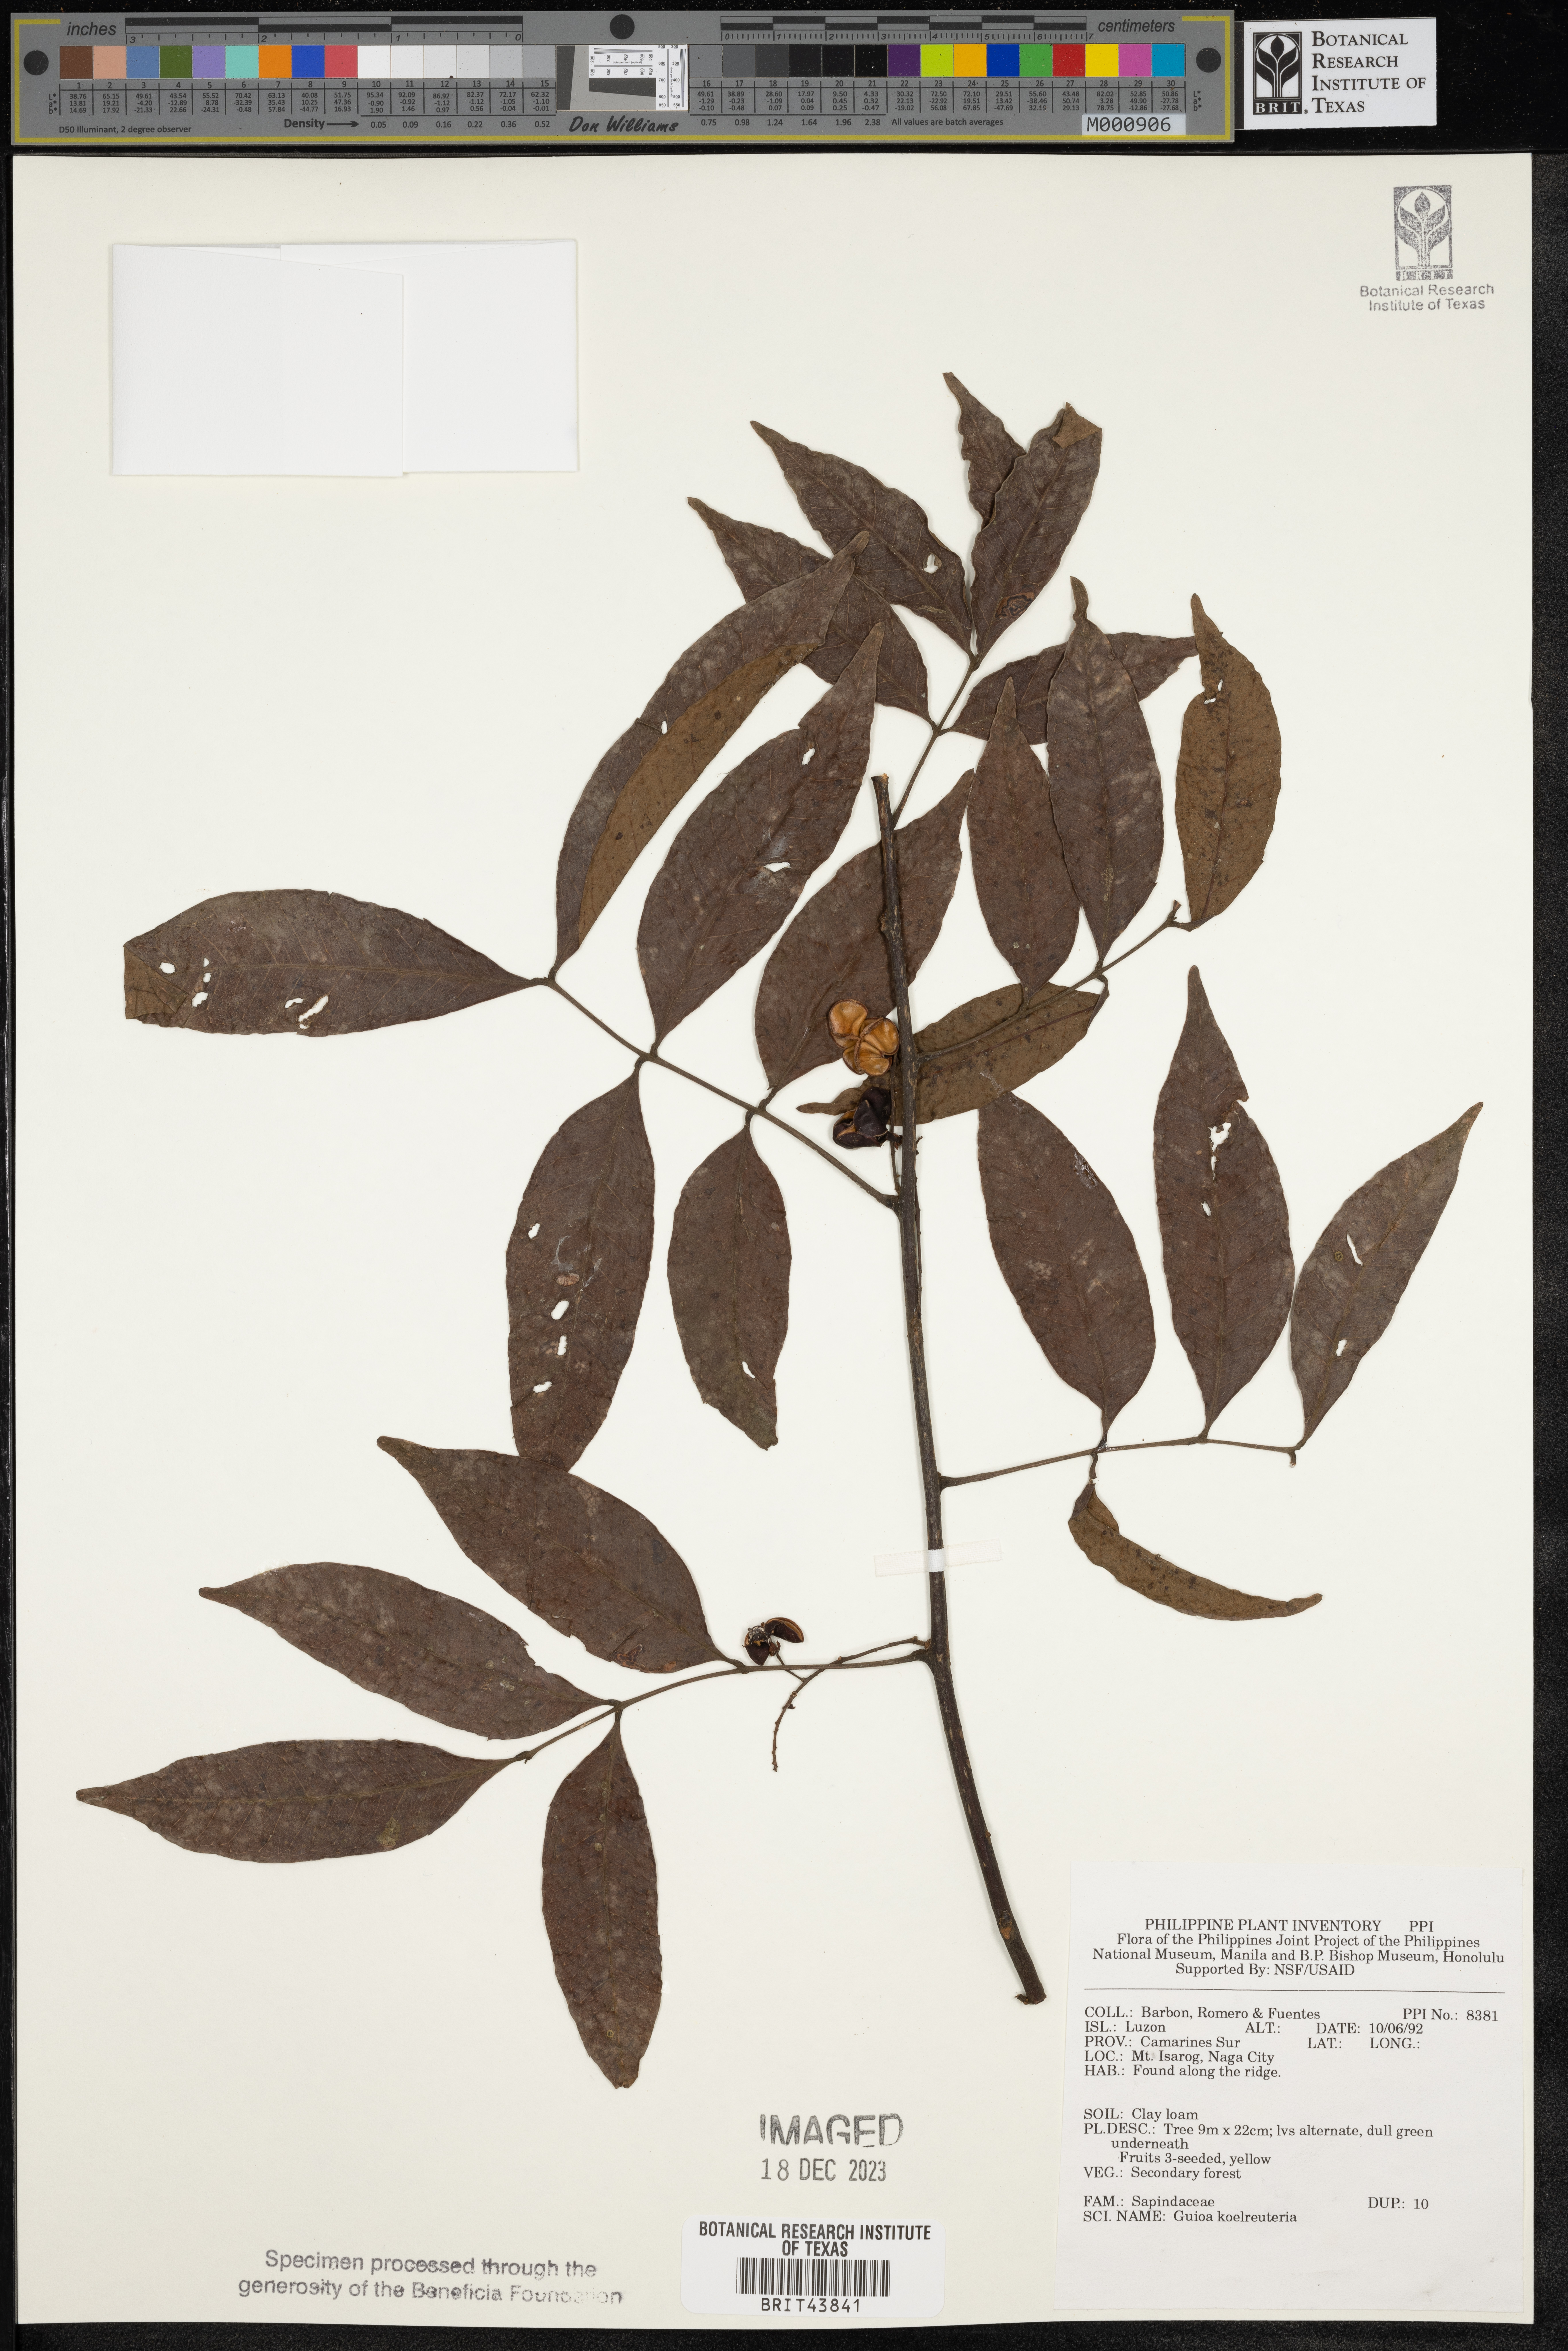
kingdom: Plantae
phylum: Tracheophyta
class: Magnoliopsida
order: Sapindales
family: Sapindaceae
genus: Guioa
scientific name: Guioa koelreuteria
